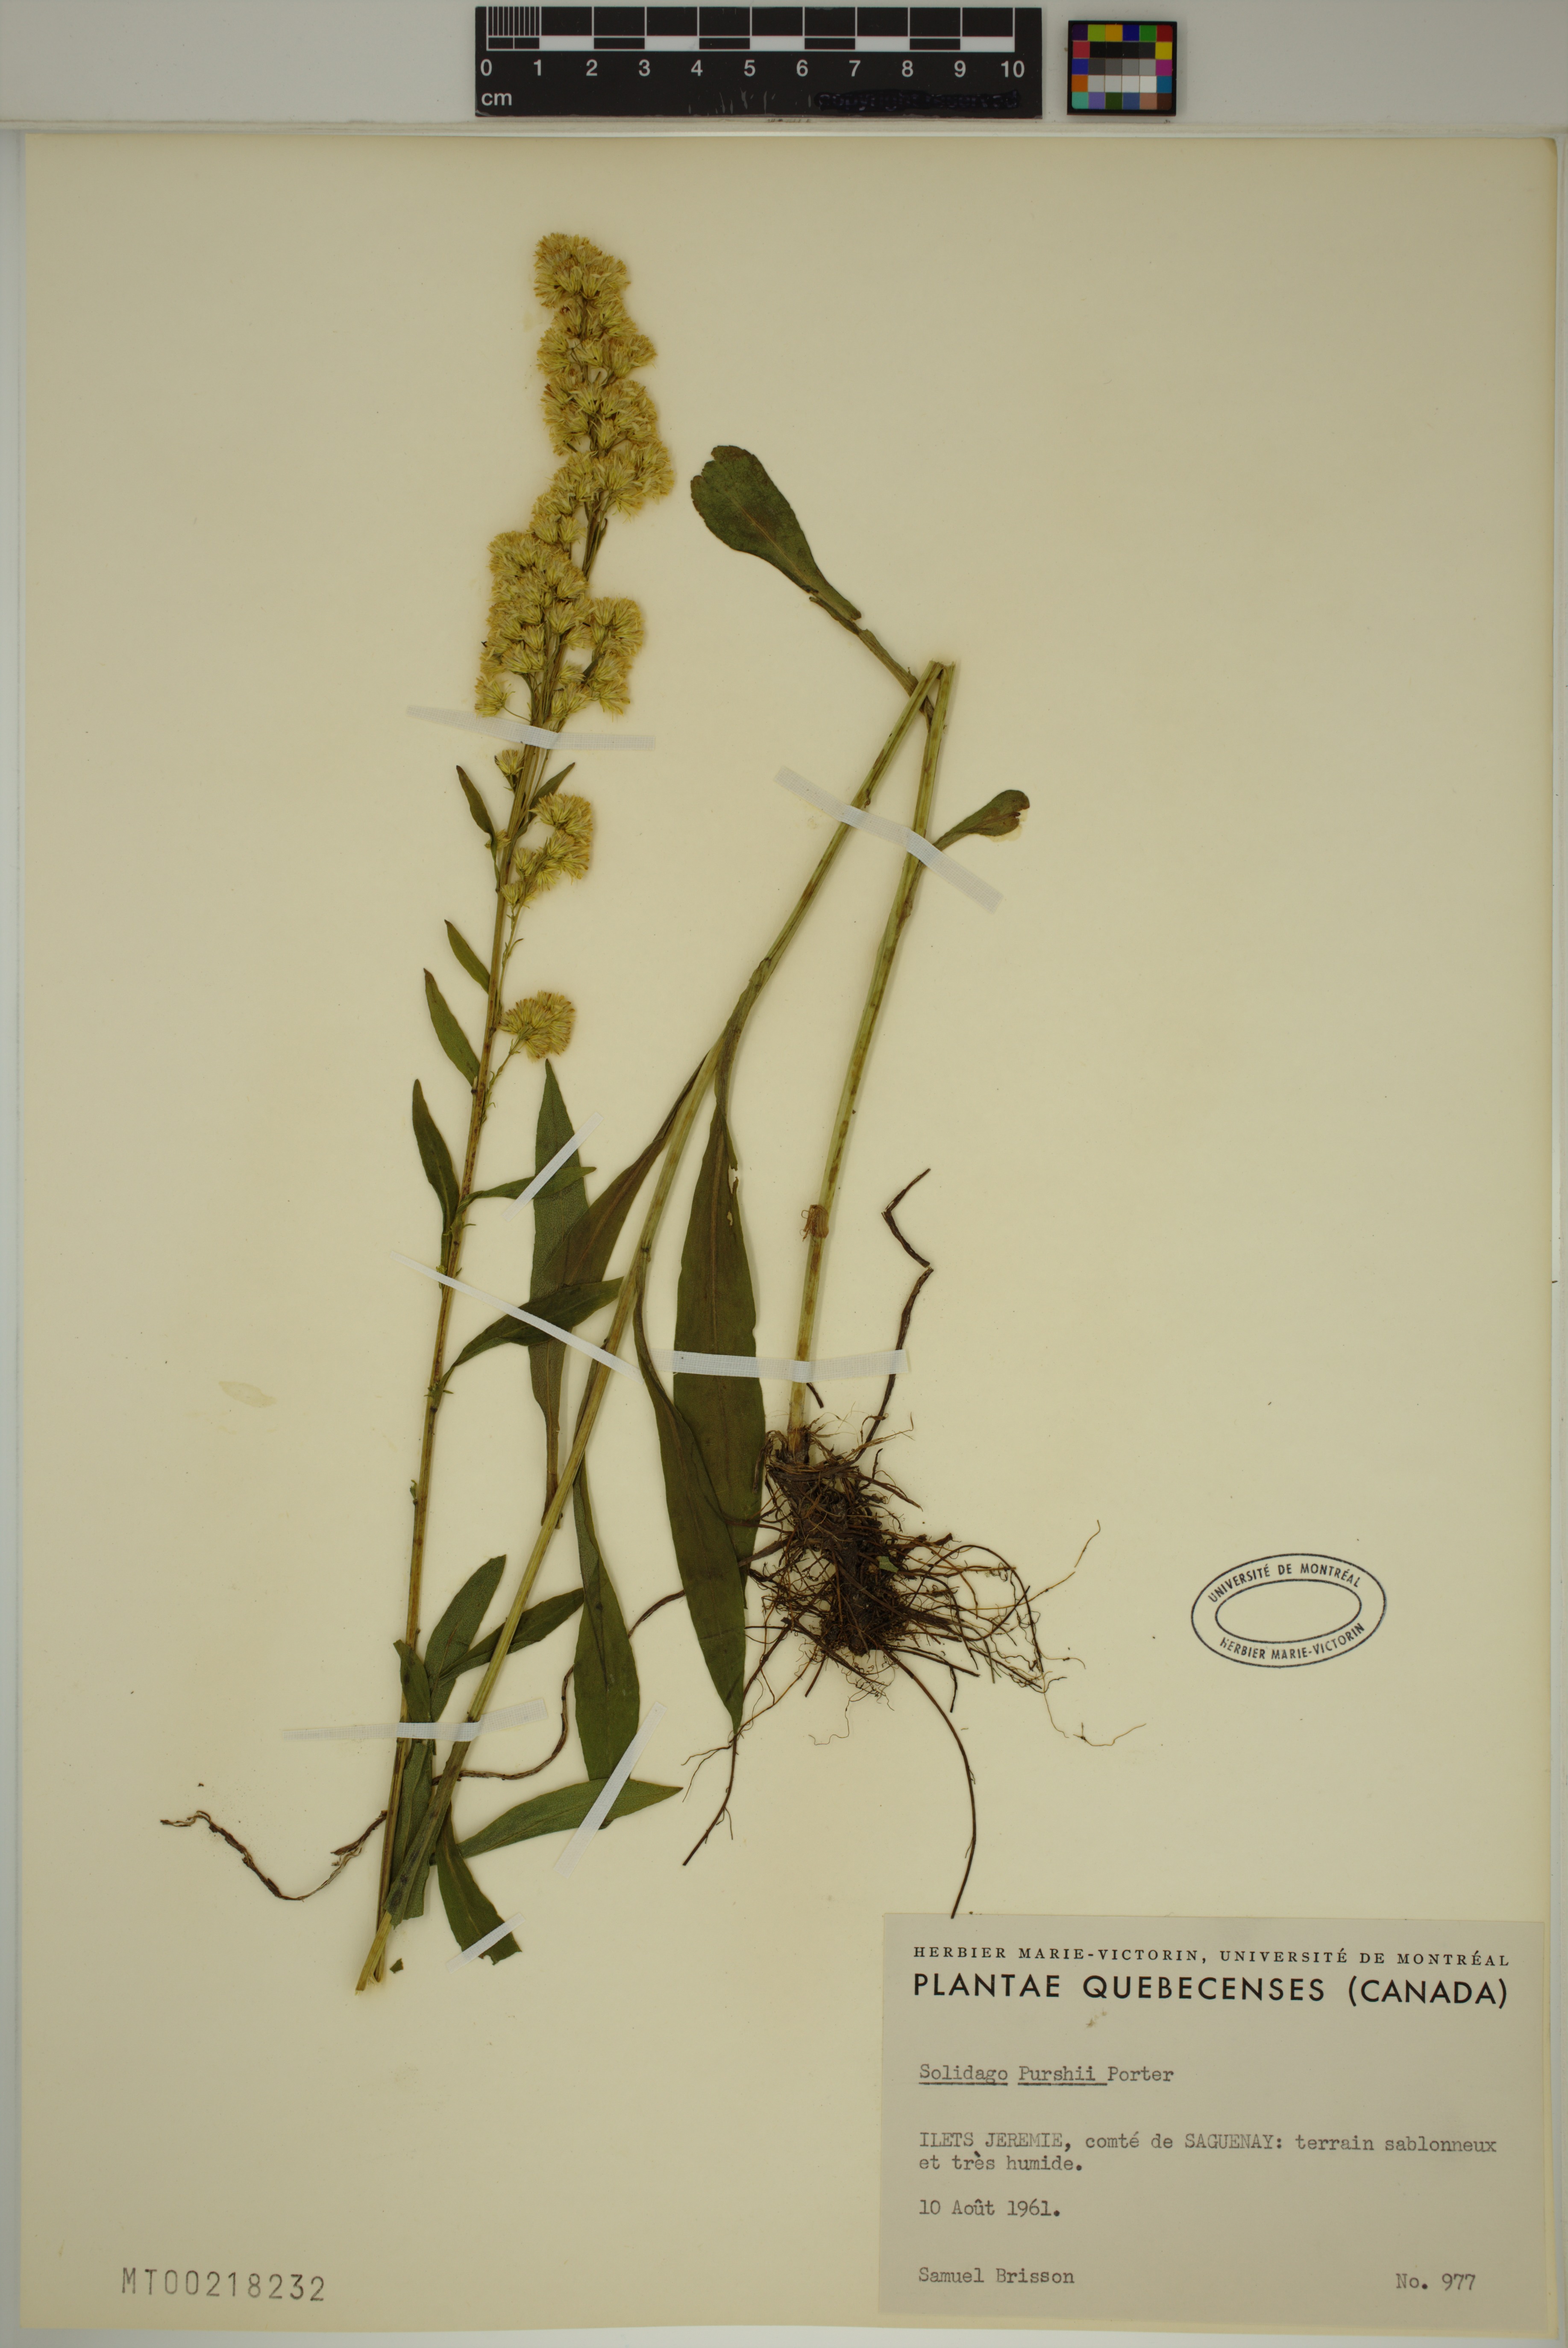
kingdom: Plantae
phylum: Tracheophyta
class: Magnoliopsida
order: Asterales
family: Asteraceae
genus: Solidago
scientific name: Solidago uliginosa
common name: Bog goldenrod
